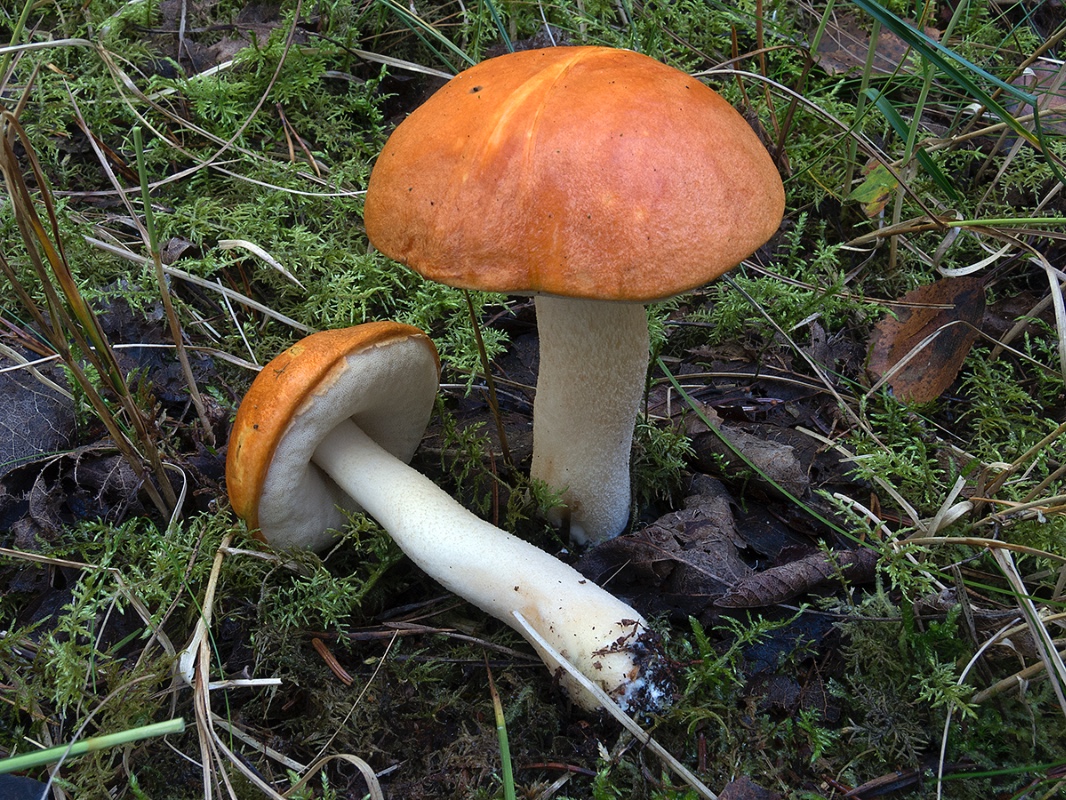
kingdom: Fungi
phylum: Basidiomycota
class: Agaricomycetes
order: Boletales
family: Boletaceae
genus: Leccinum
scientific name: Leccinum albostipitatum
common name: aspe-skælrørhat
